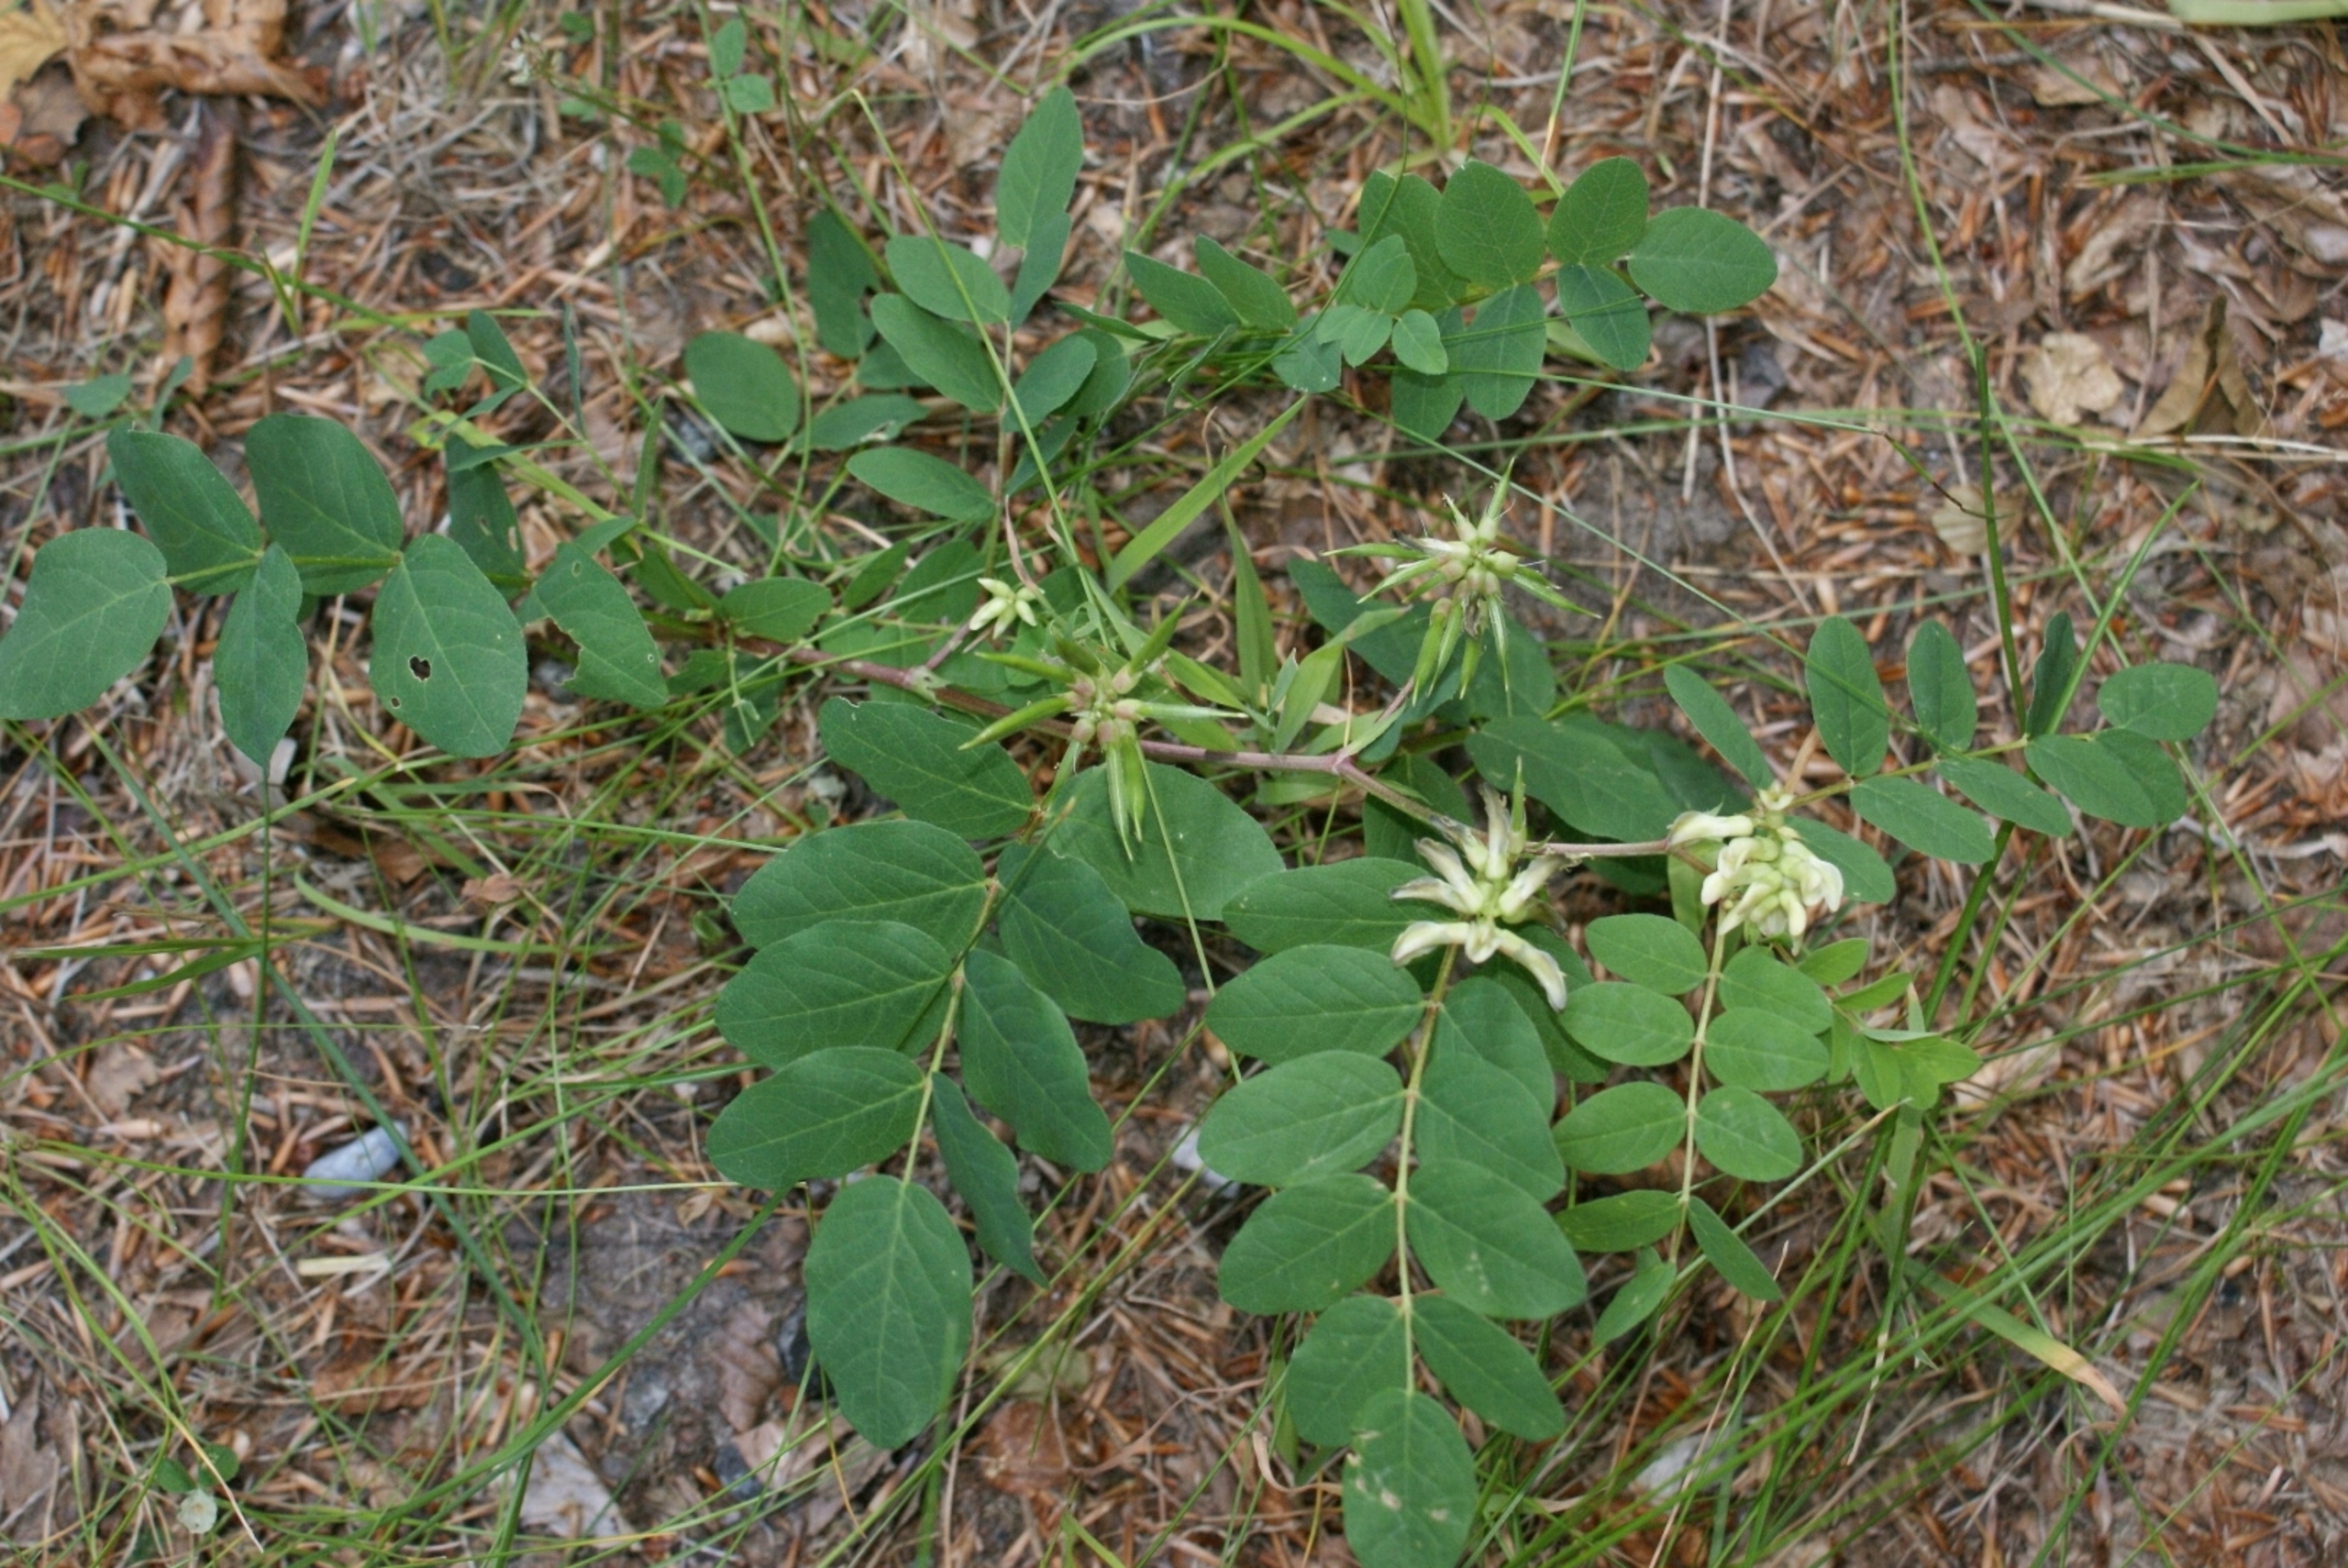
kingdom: Plantae
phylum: Tracheophyta
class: Magnoliopsida
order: Fabales
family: Fabaceae
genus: Astragalus
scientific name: Astragalus glycyphyllos
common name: Sød astragel
